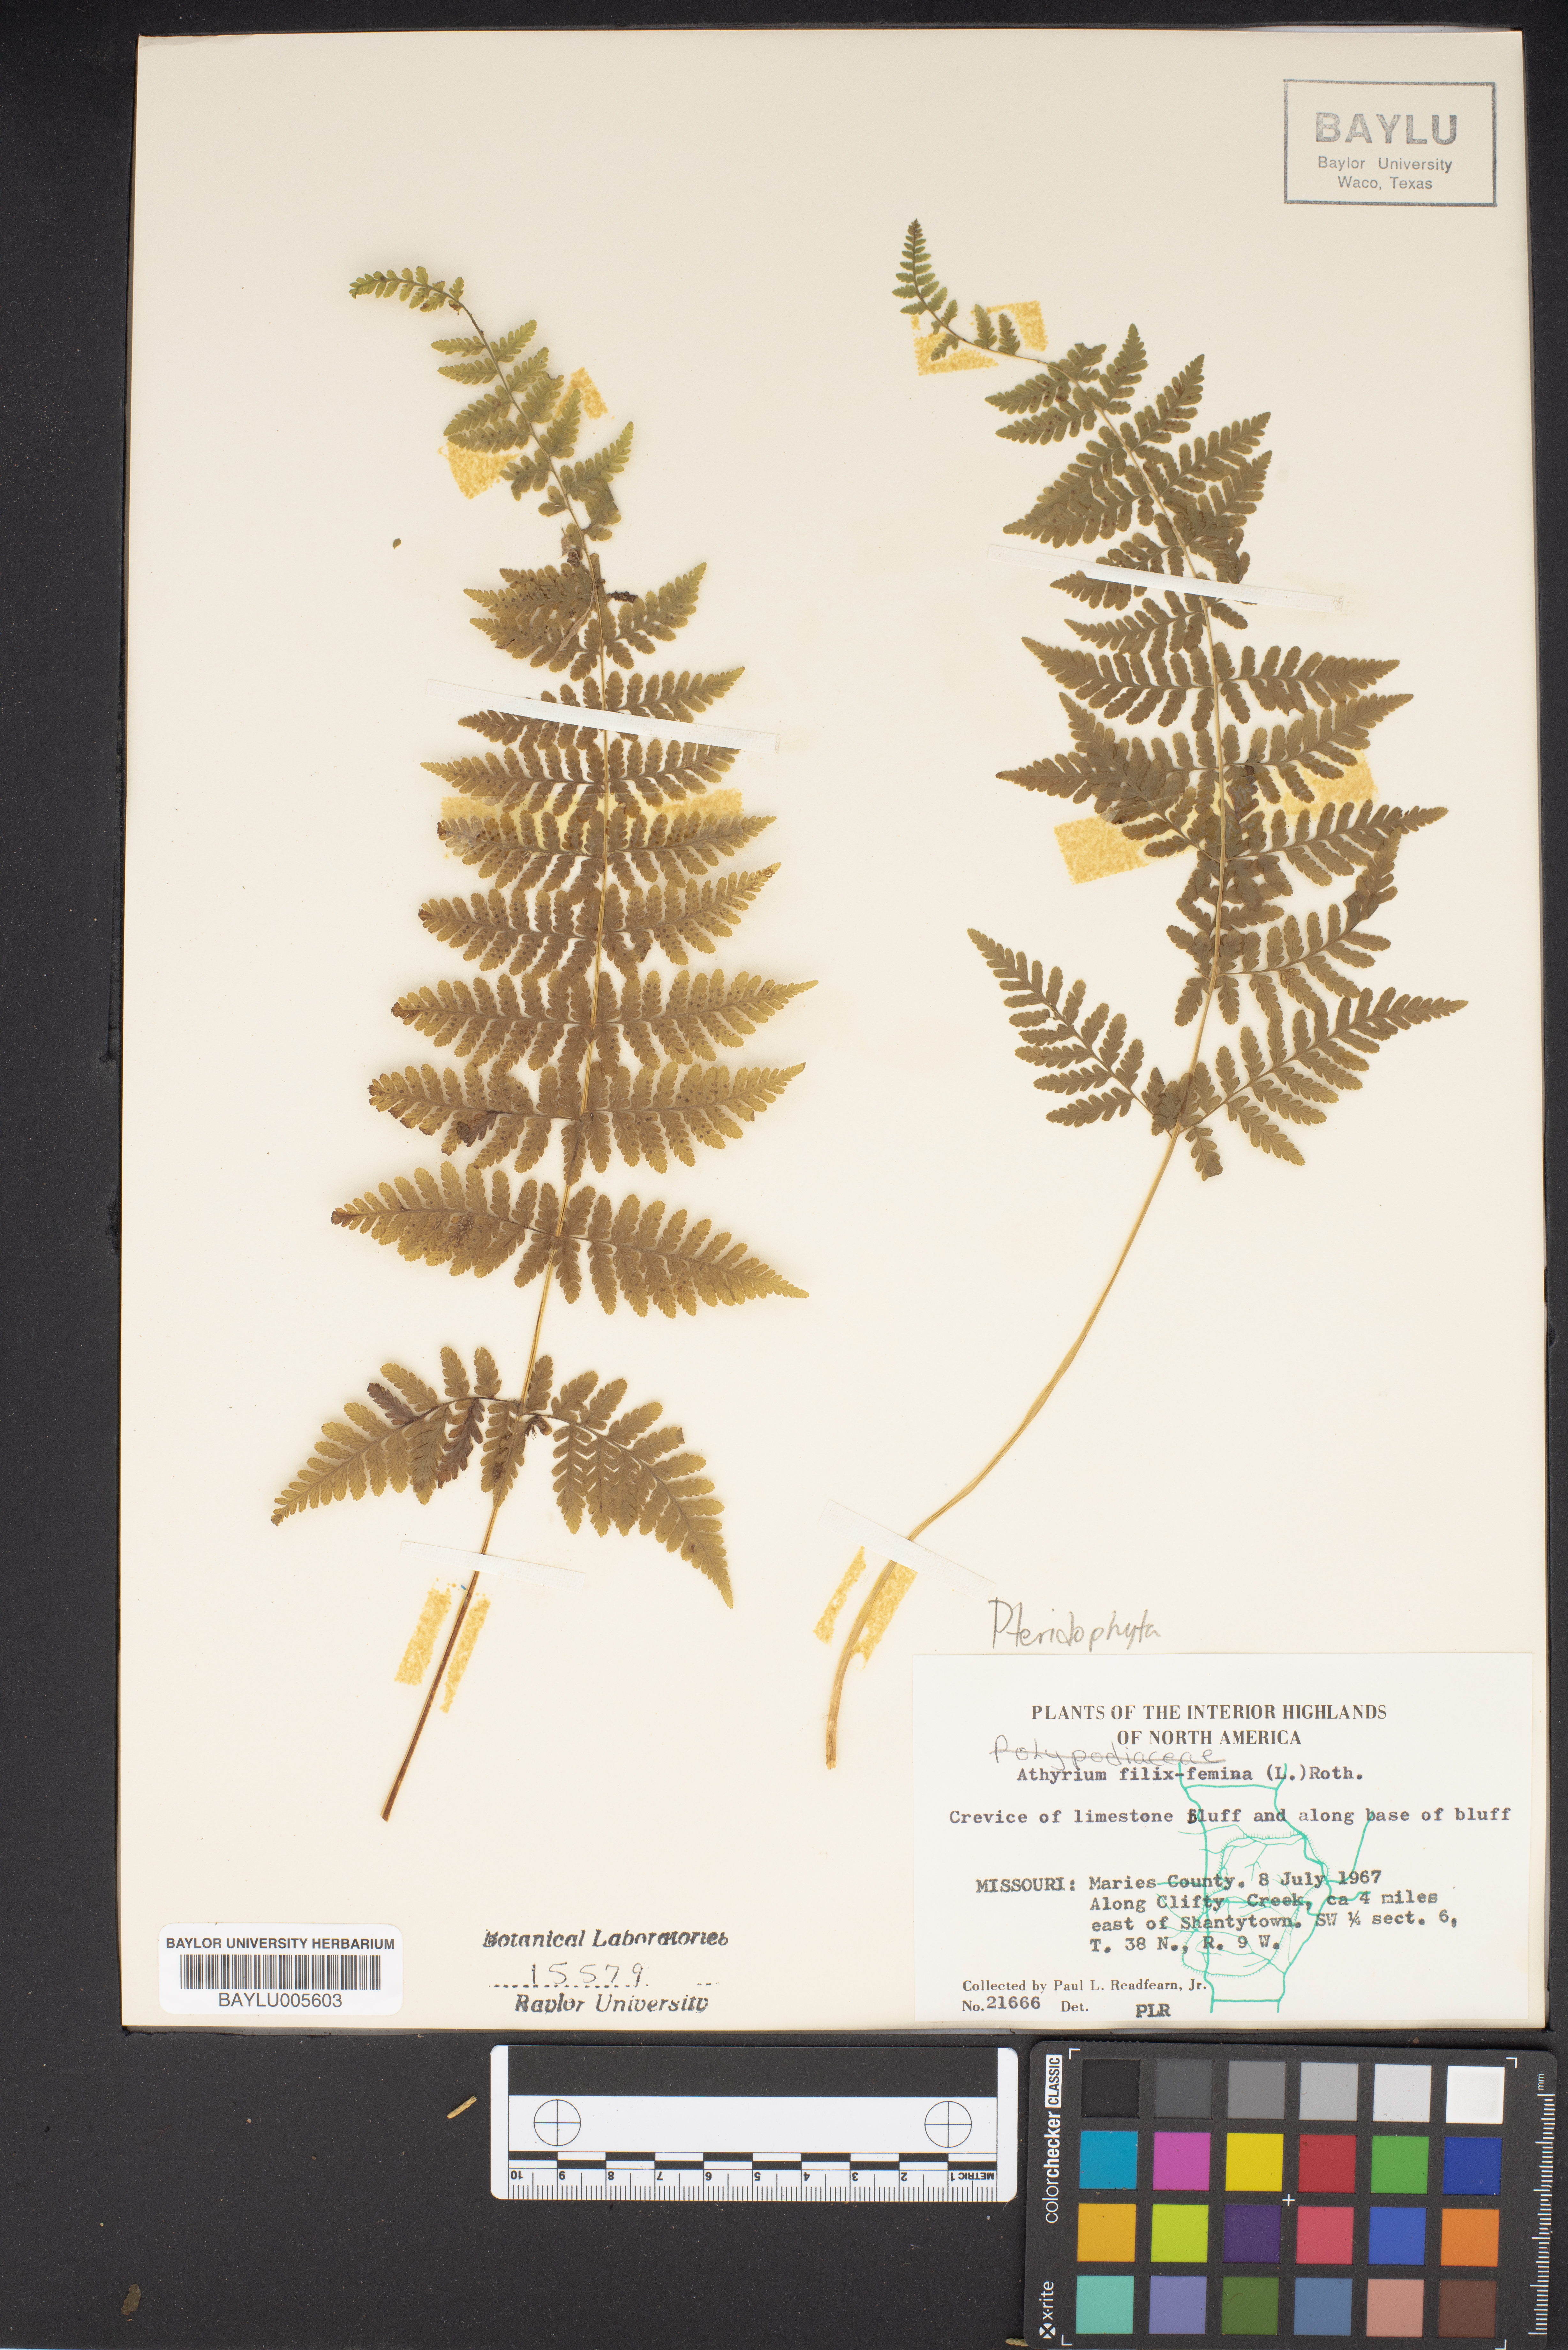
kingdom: Plantae
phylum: Tracheophyta
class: Polypodiopsida
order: Polypodiales
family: Athyriaceae
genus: Athyrium
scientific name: Athyrium filix-femina
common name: Lady fern
